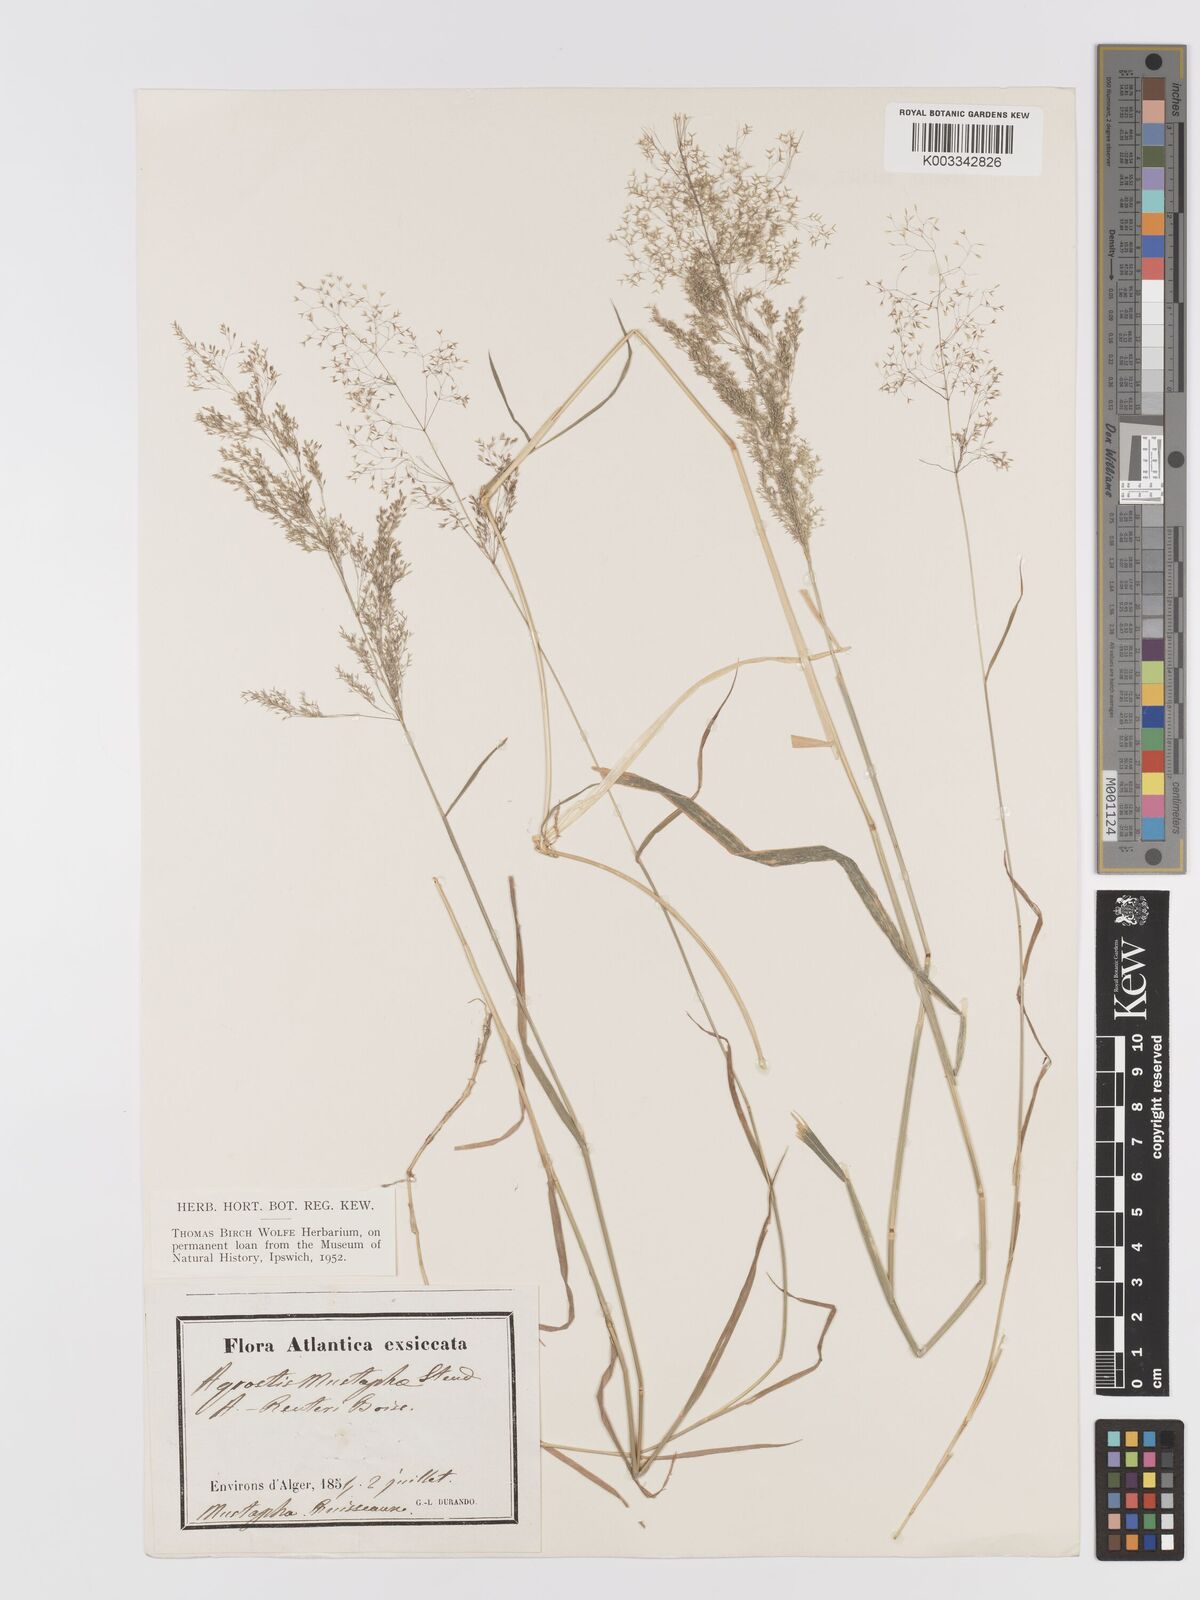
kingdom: Plantae
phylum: Tracheophyta
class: Liliopsida
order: Poales
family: Poaceae
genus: Agrostis
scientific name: Agrostis
